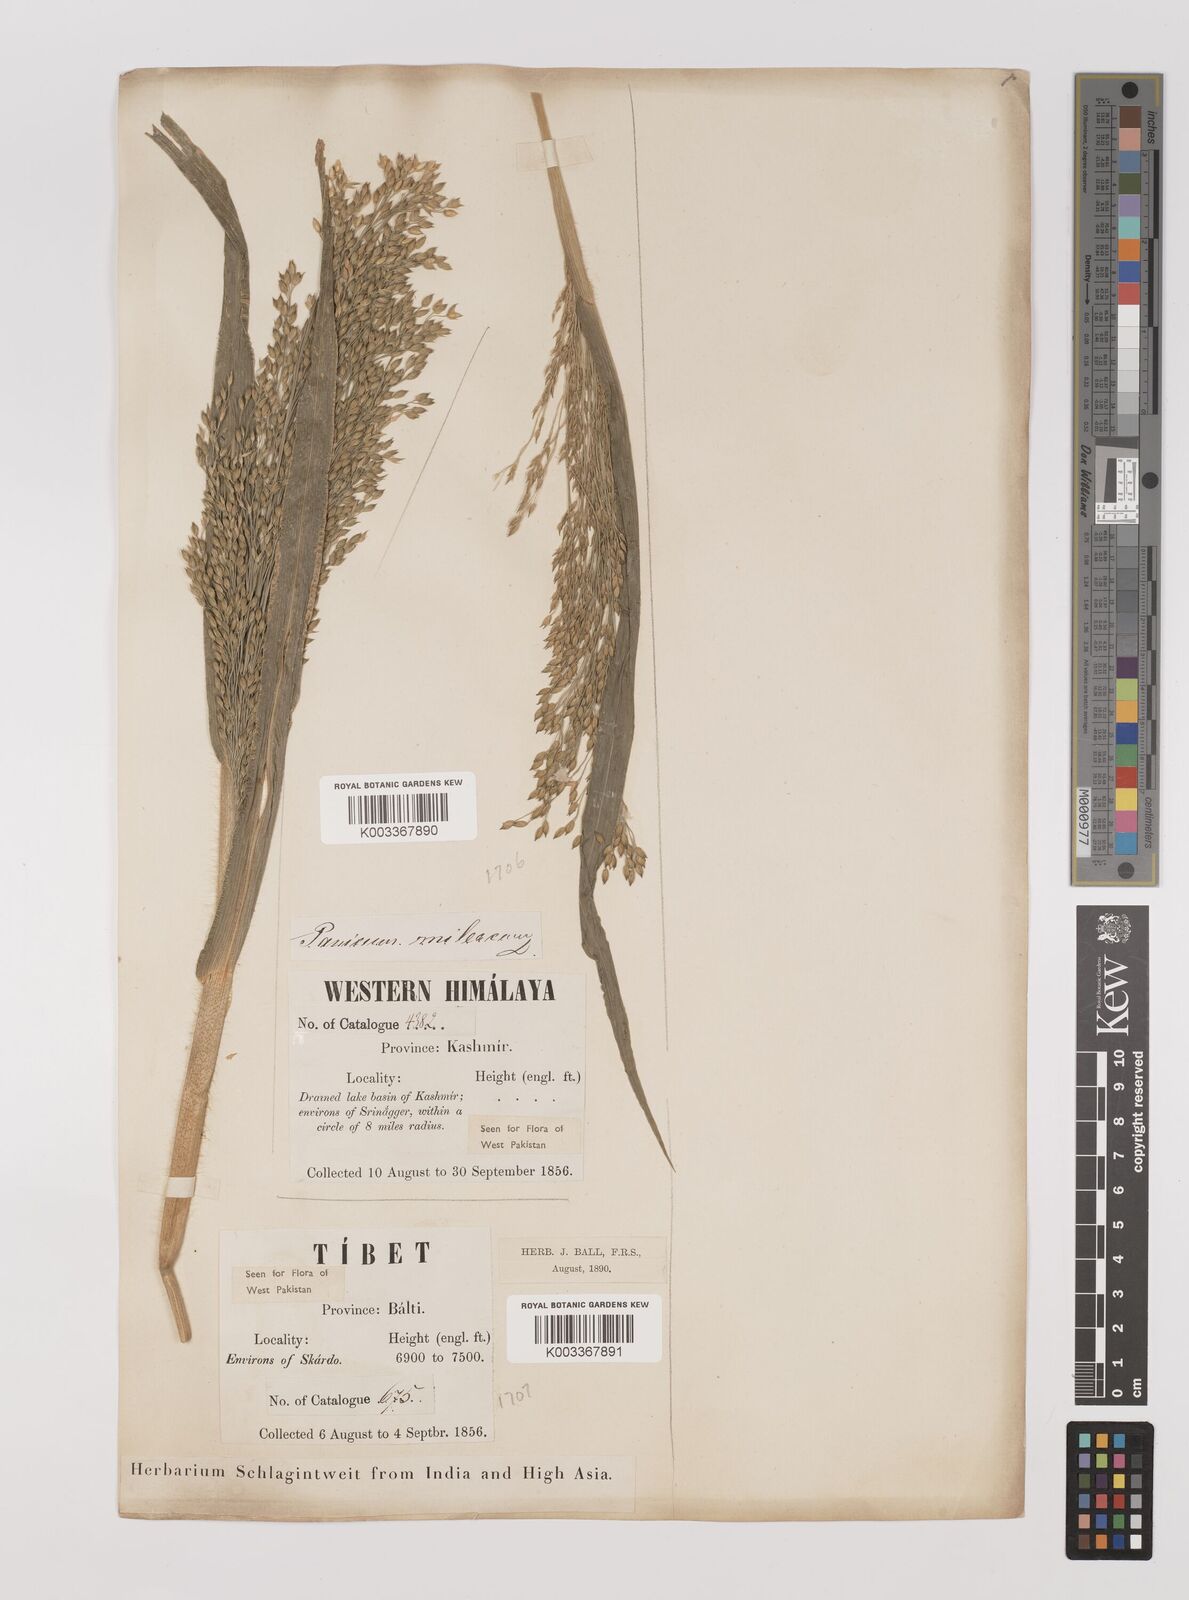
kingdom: Plantae
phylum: Tracheophyta
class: Liliopsida
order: Poales
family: Poaceae
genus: Panicum
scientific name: Panicum miliaceum
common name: Common millet
